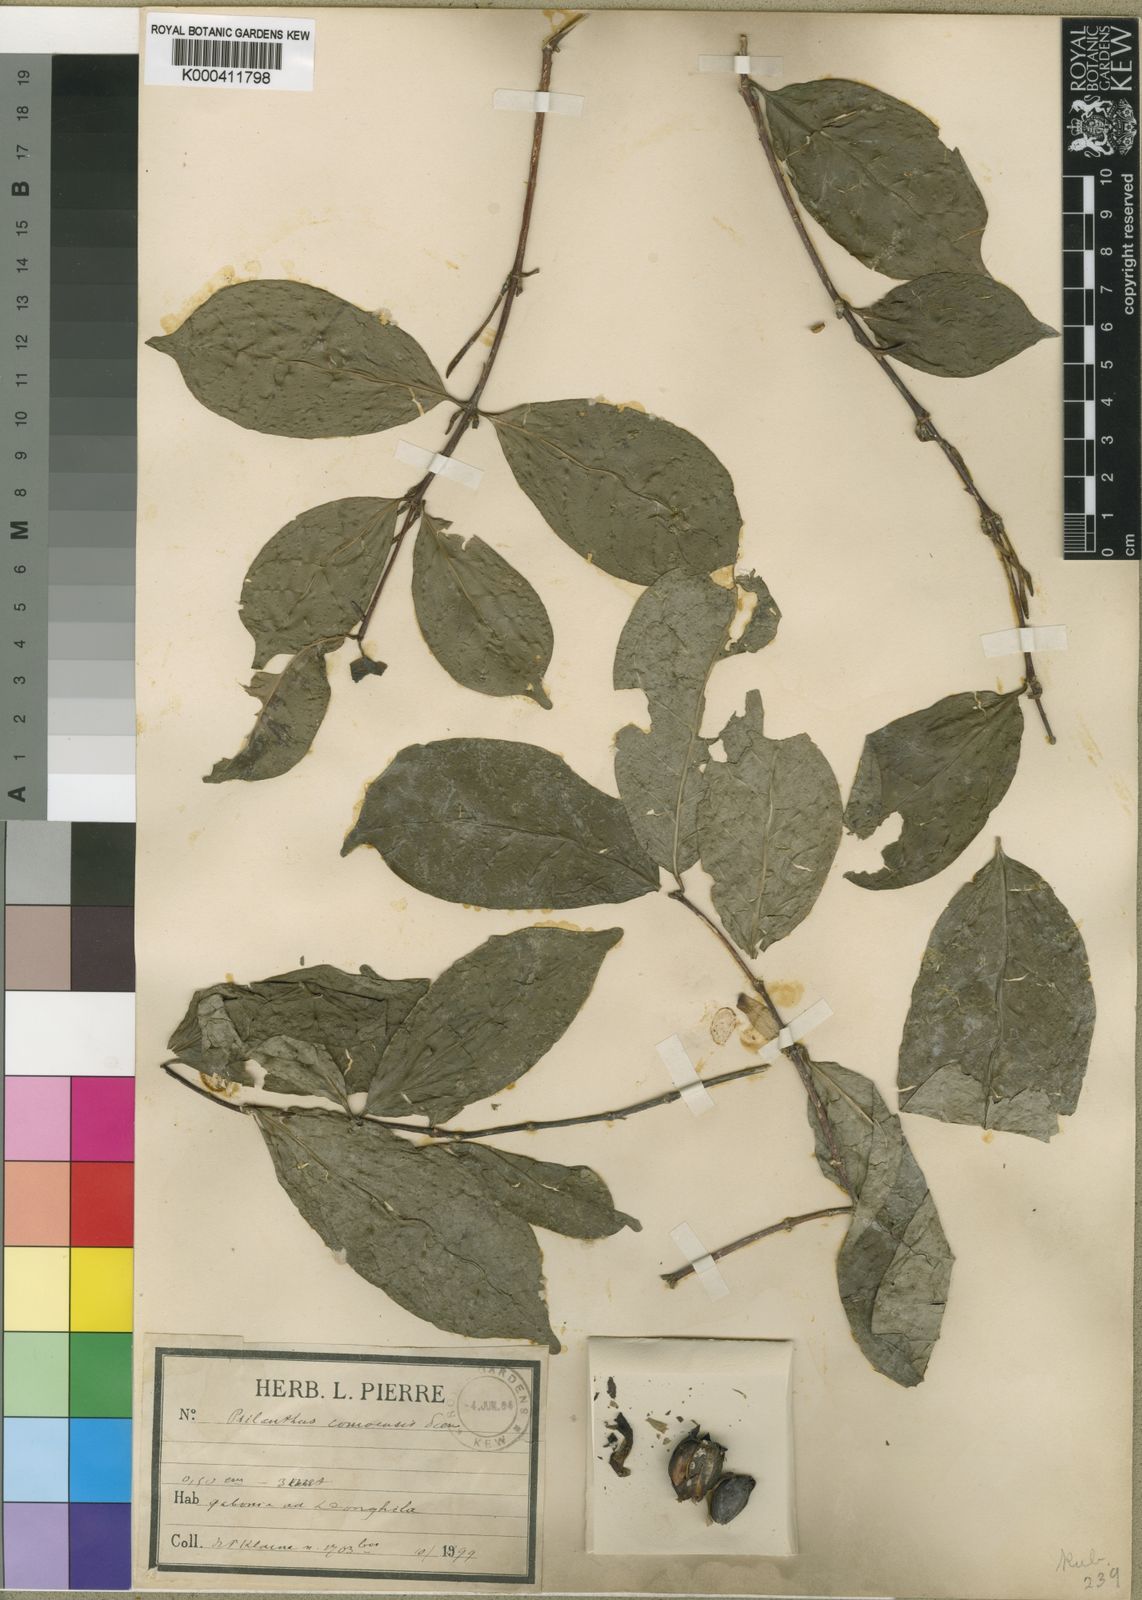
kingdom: Plantae
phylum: Tracheophyta
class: Magnoliopsida
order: Gentianales
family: Rubiaceae
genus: Coffea
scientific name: Coffea mannii
